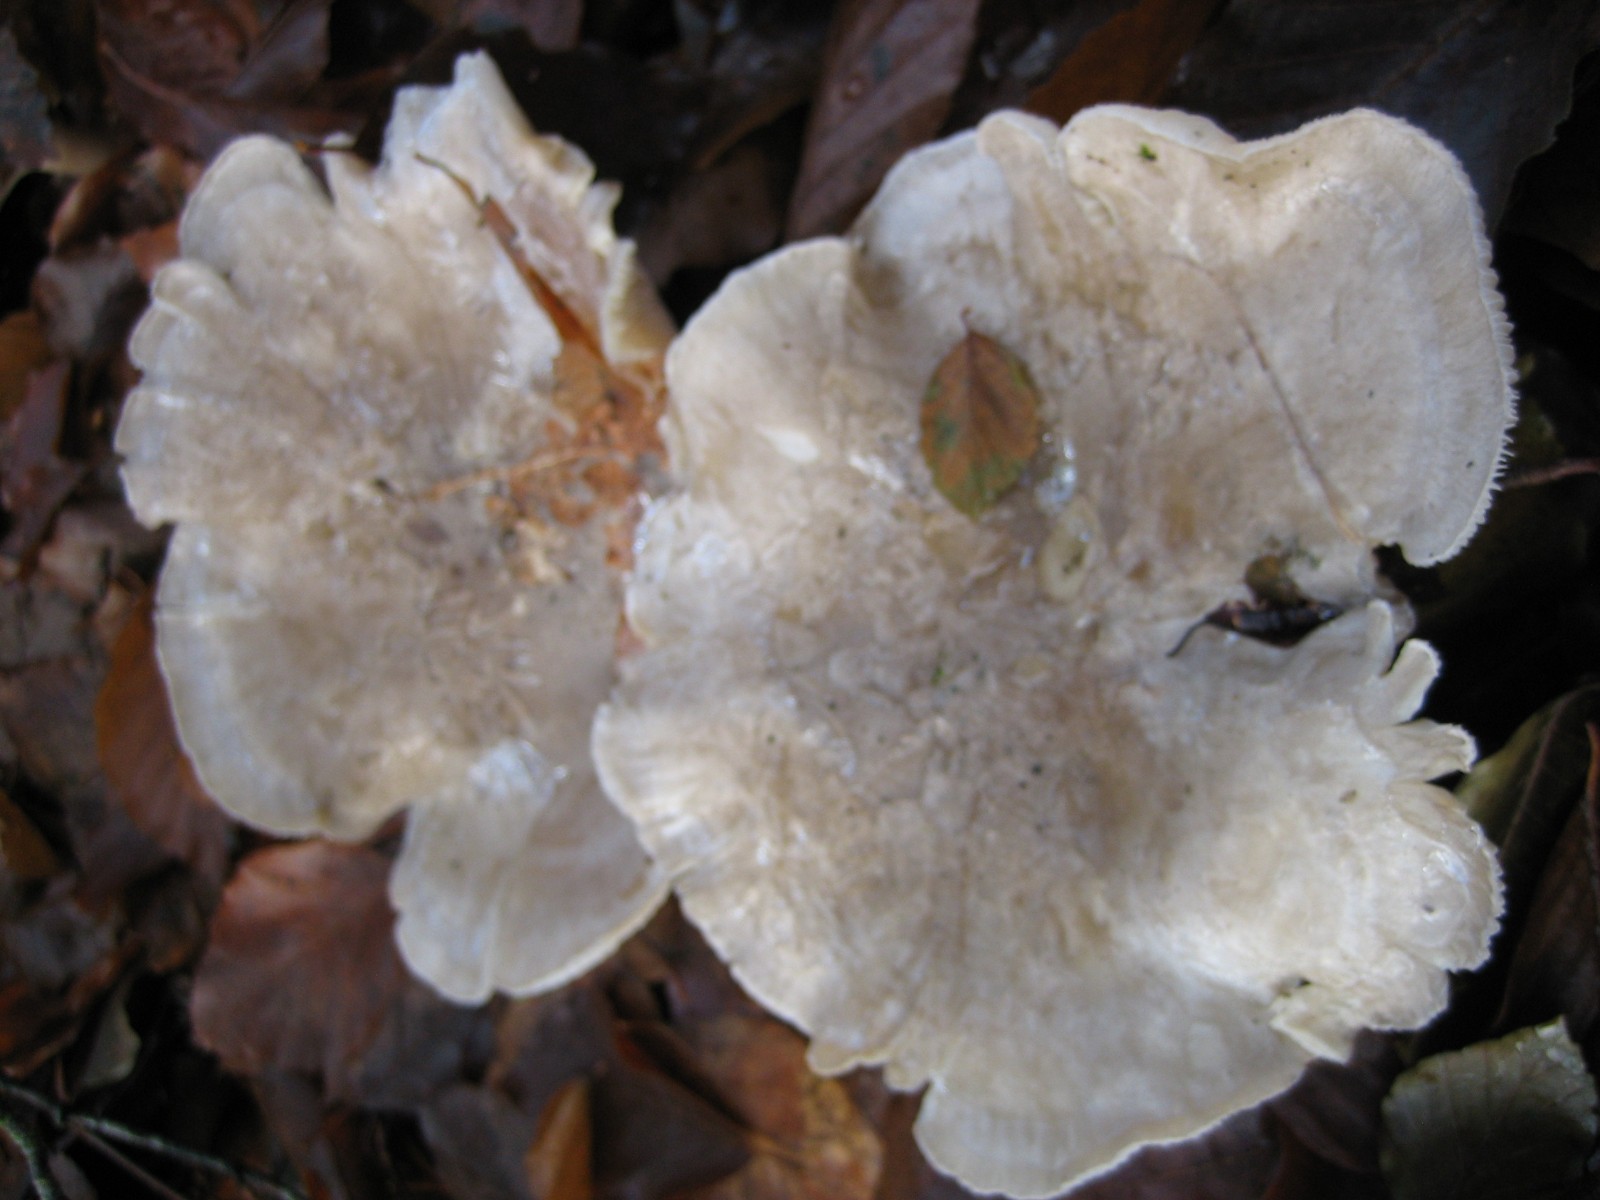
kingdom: Fungi
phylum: Basidiomycota
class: Agaricomycetes
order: Agaricales
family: Tricholomataceae
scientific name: Tricholomataceae
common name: ridderhatfamilien
